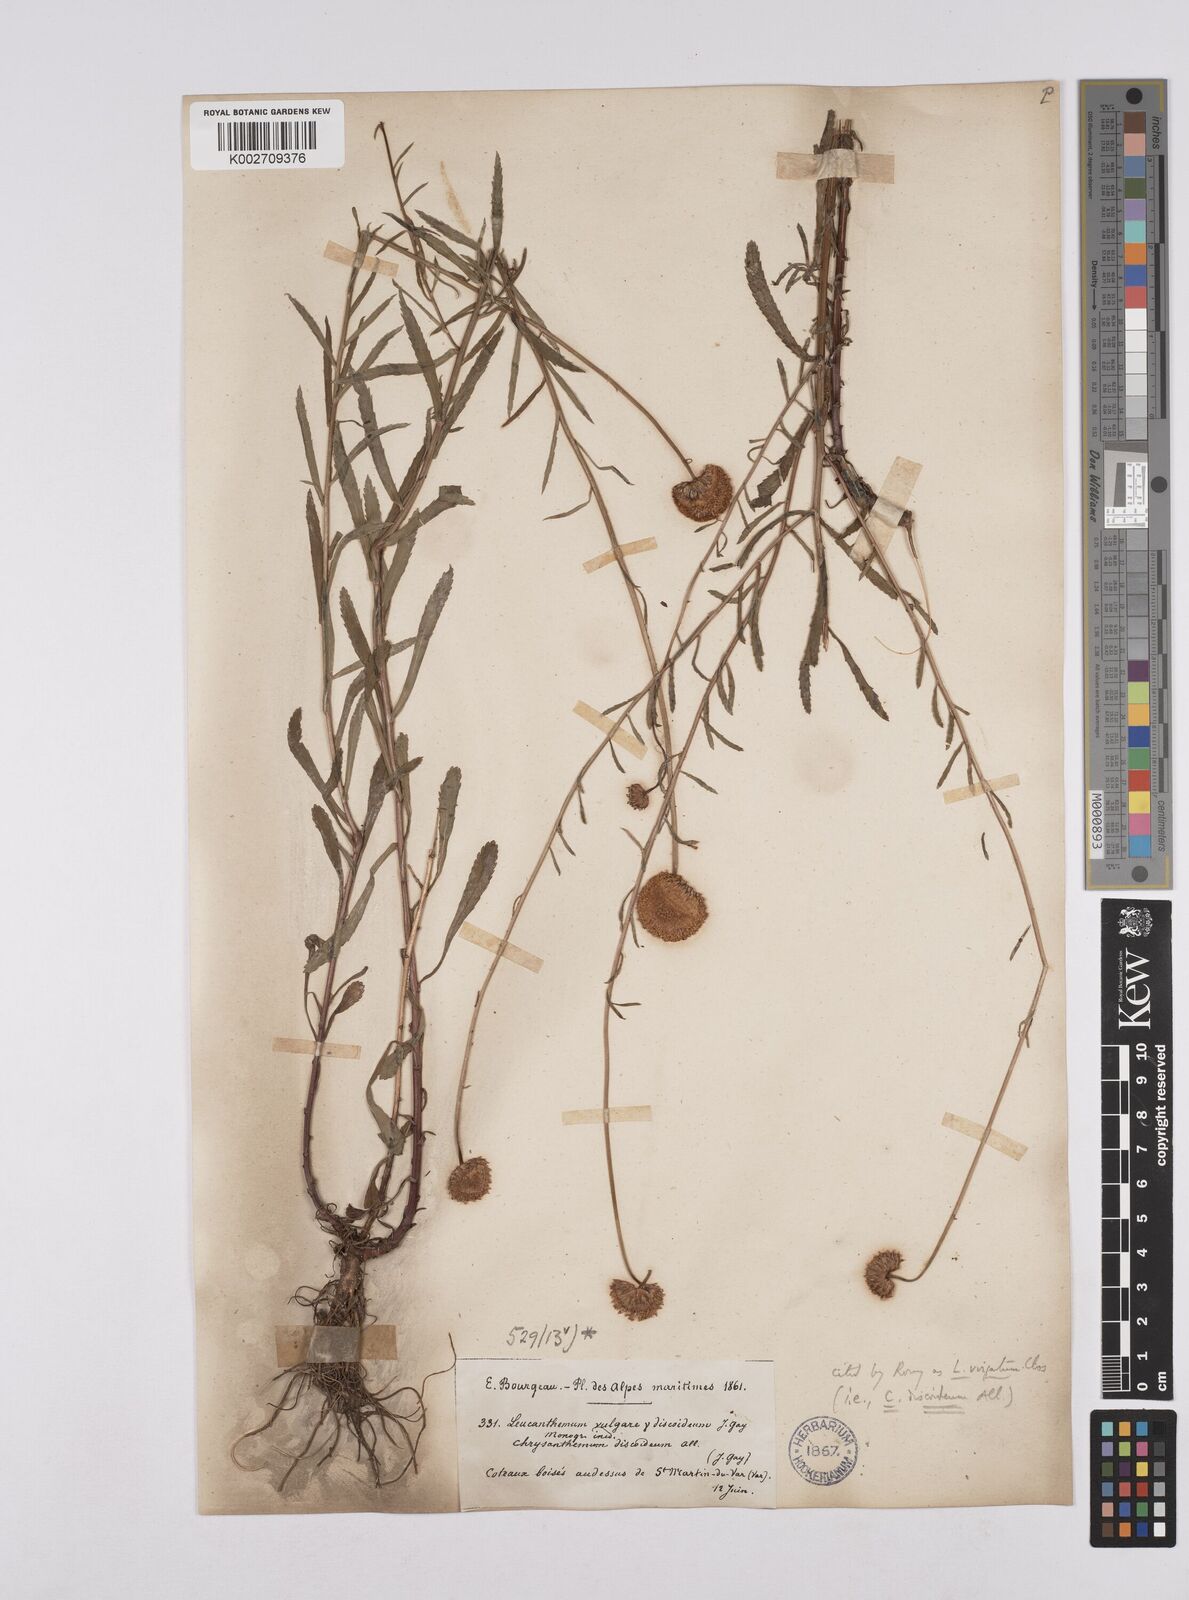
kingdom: Plantae
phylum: Tracheophyta
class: Magnoliopsida
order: Asterales
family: Asteraceae
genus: Leucanthemum
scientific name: Leucanthemum vulgare
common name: Oxeye daisy
